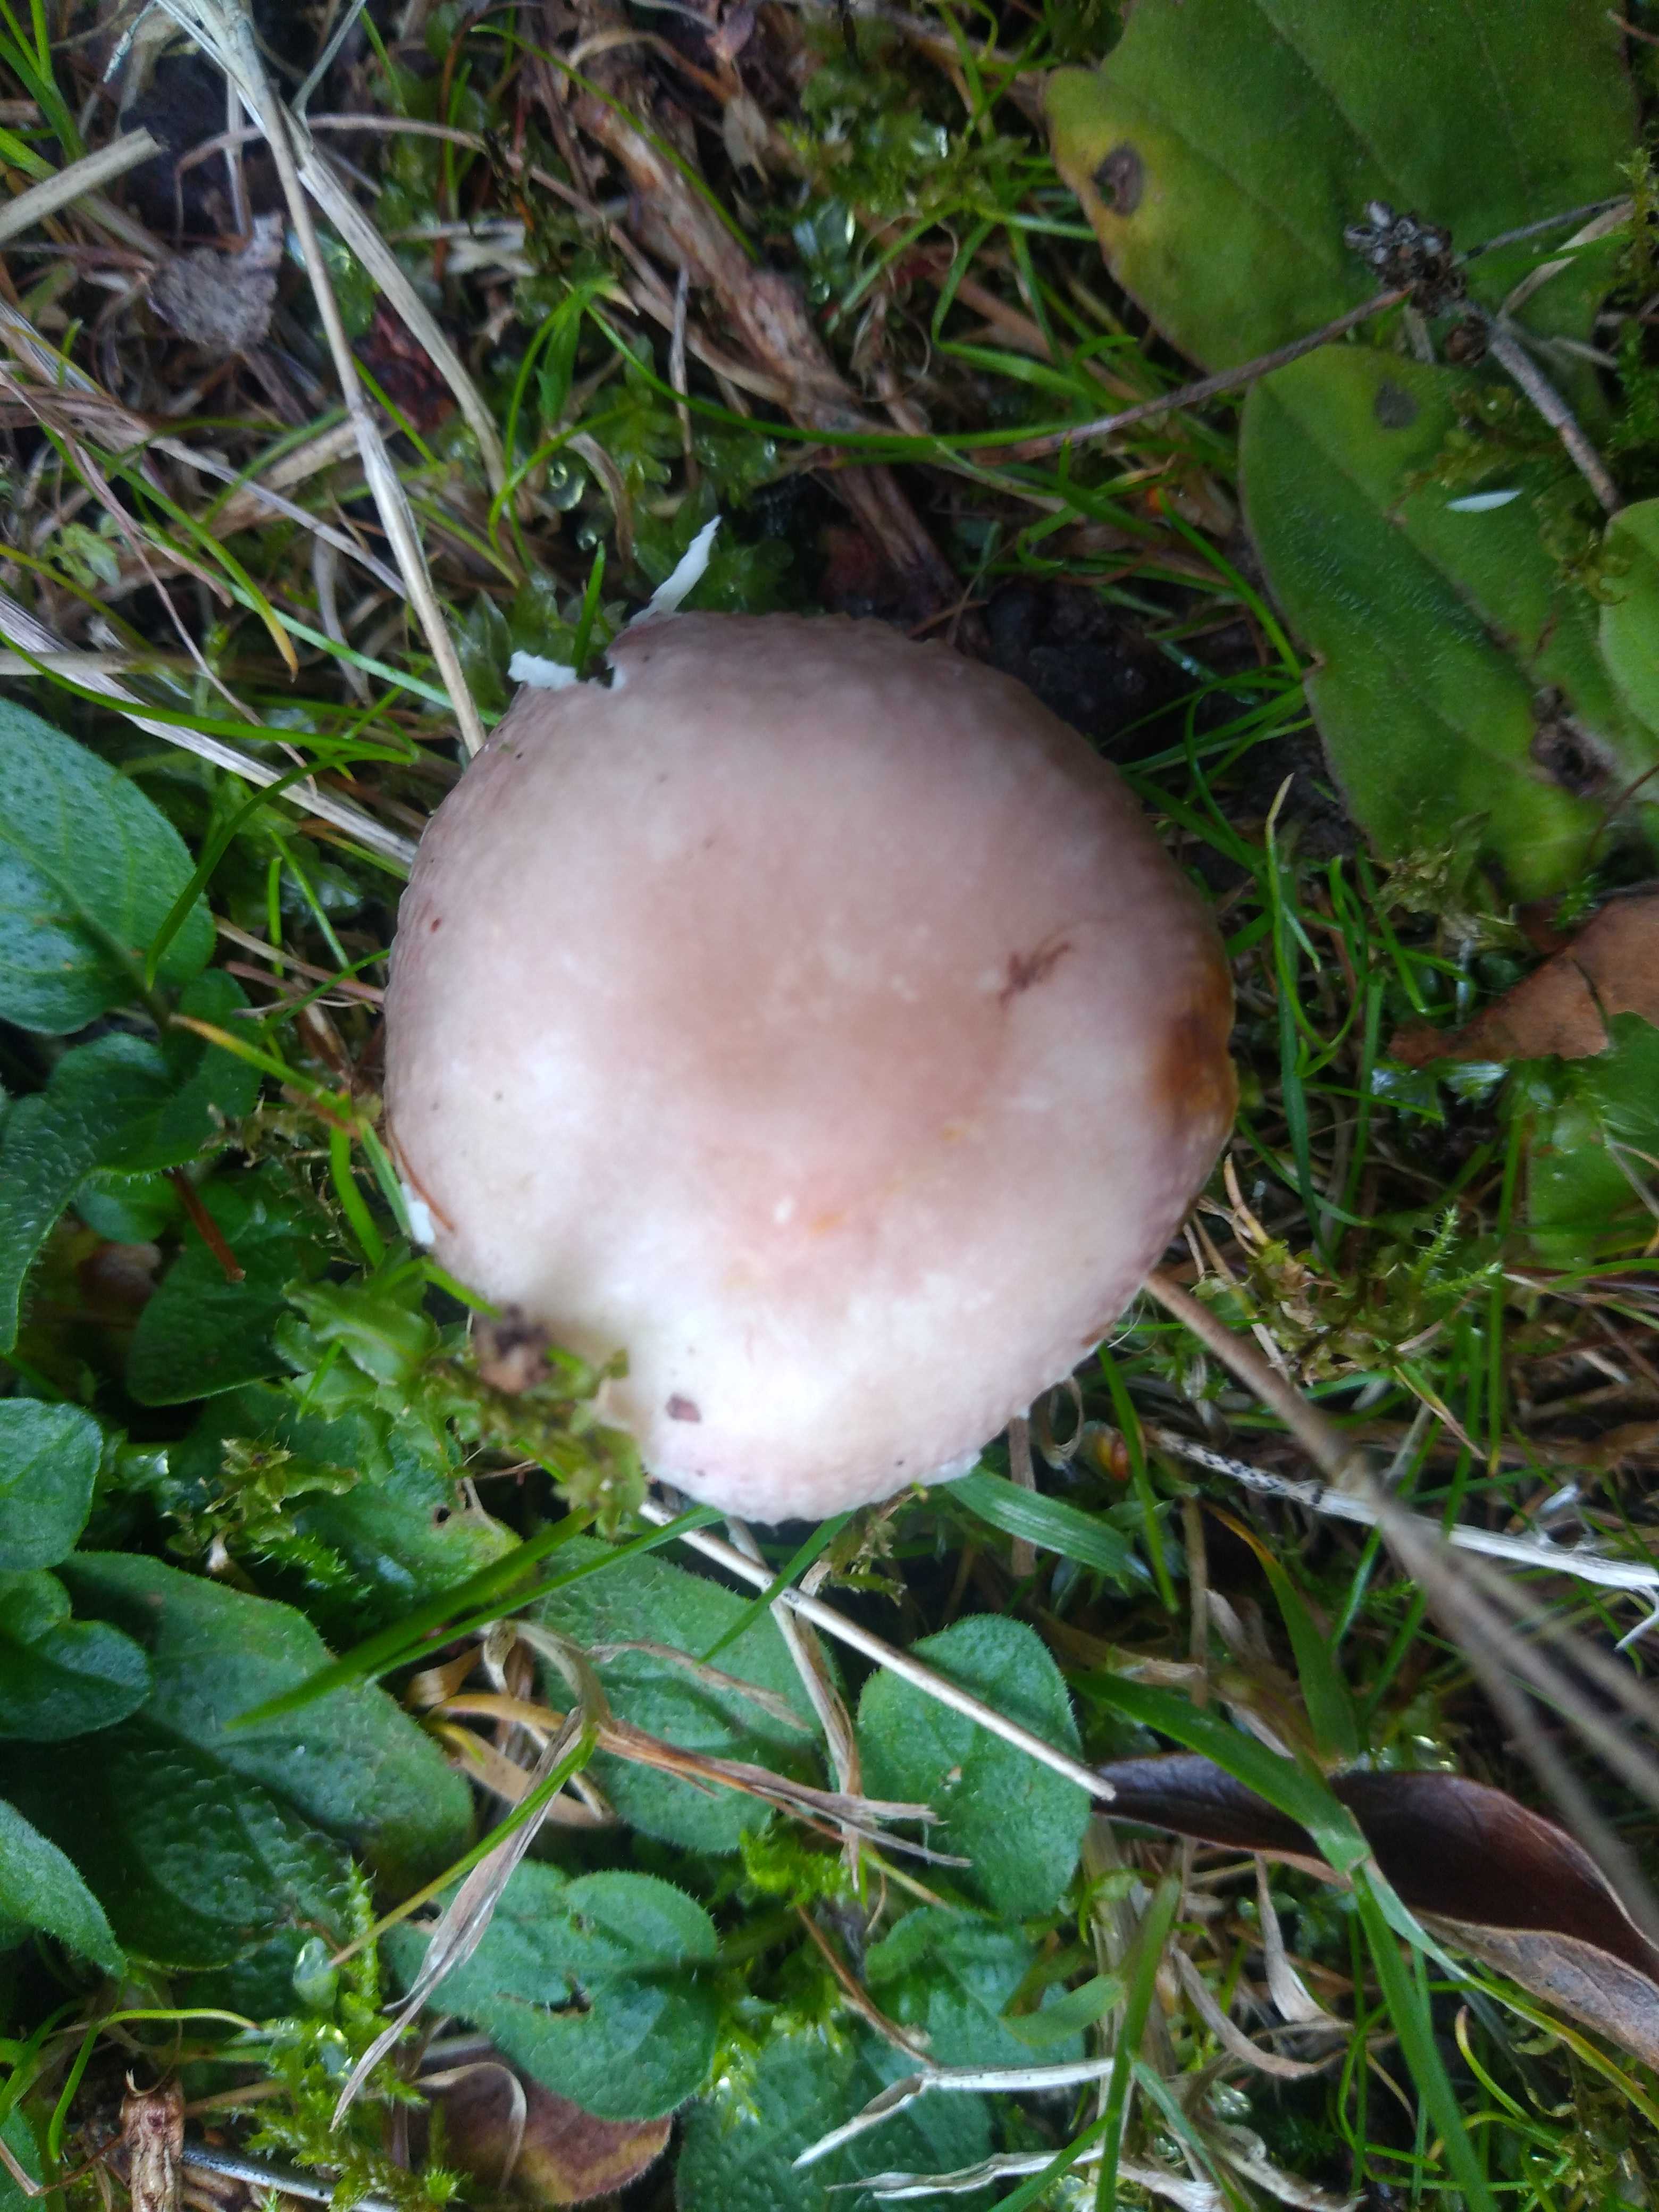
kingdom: Fungi
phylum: Basidiomycota
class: Agaricomycetes
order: Russulales
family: Russulaceae
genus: Russula
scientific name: Russula
